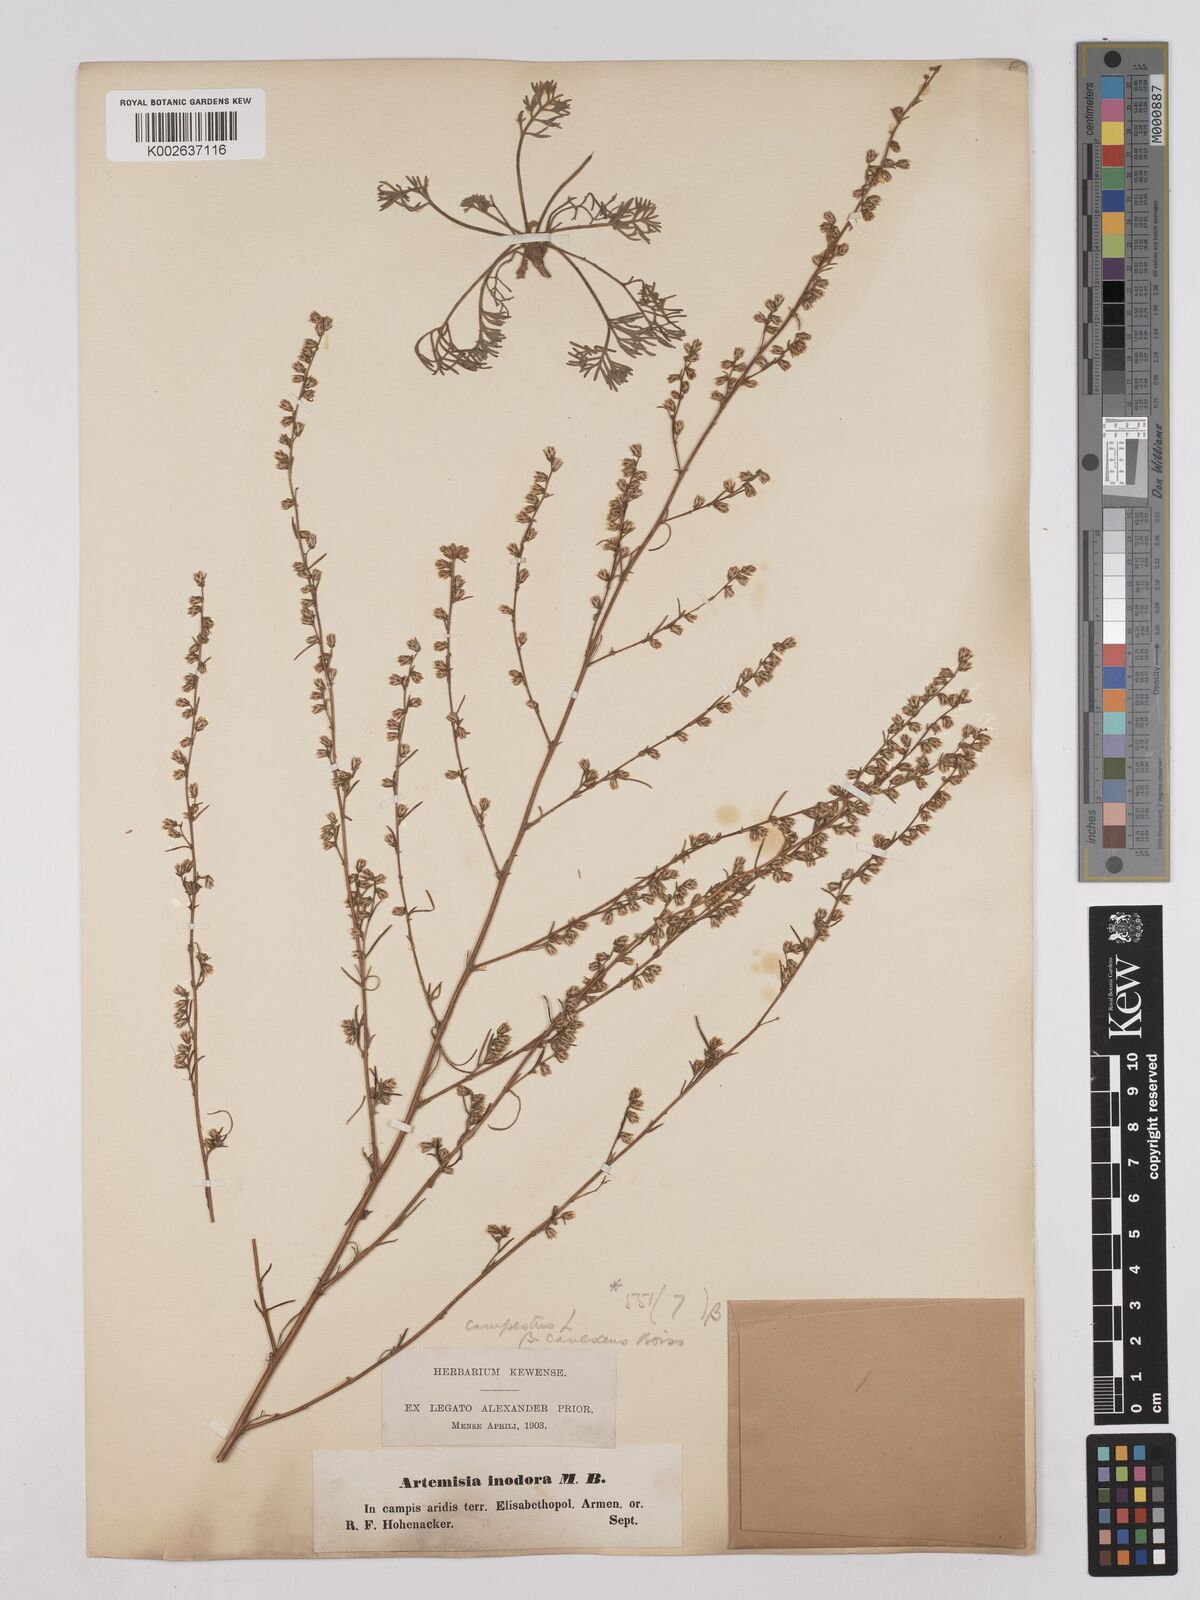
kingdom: Plantae
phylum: Tracheophyta
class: Magnoliopsida
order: Asterales
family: Asteraceae
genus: Artemisia
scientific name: Artemisia campestris
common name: Field wormwood
